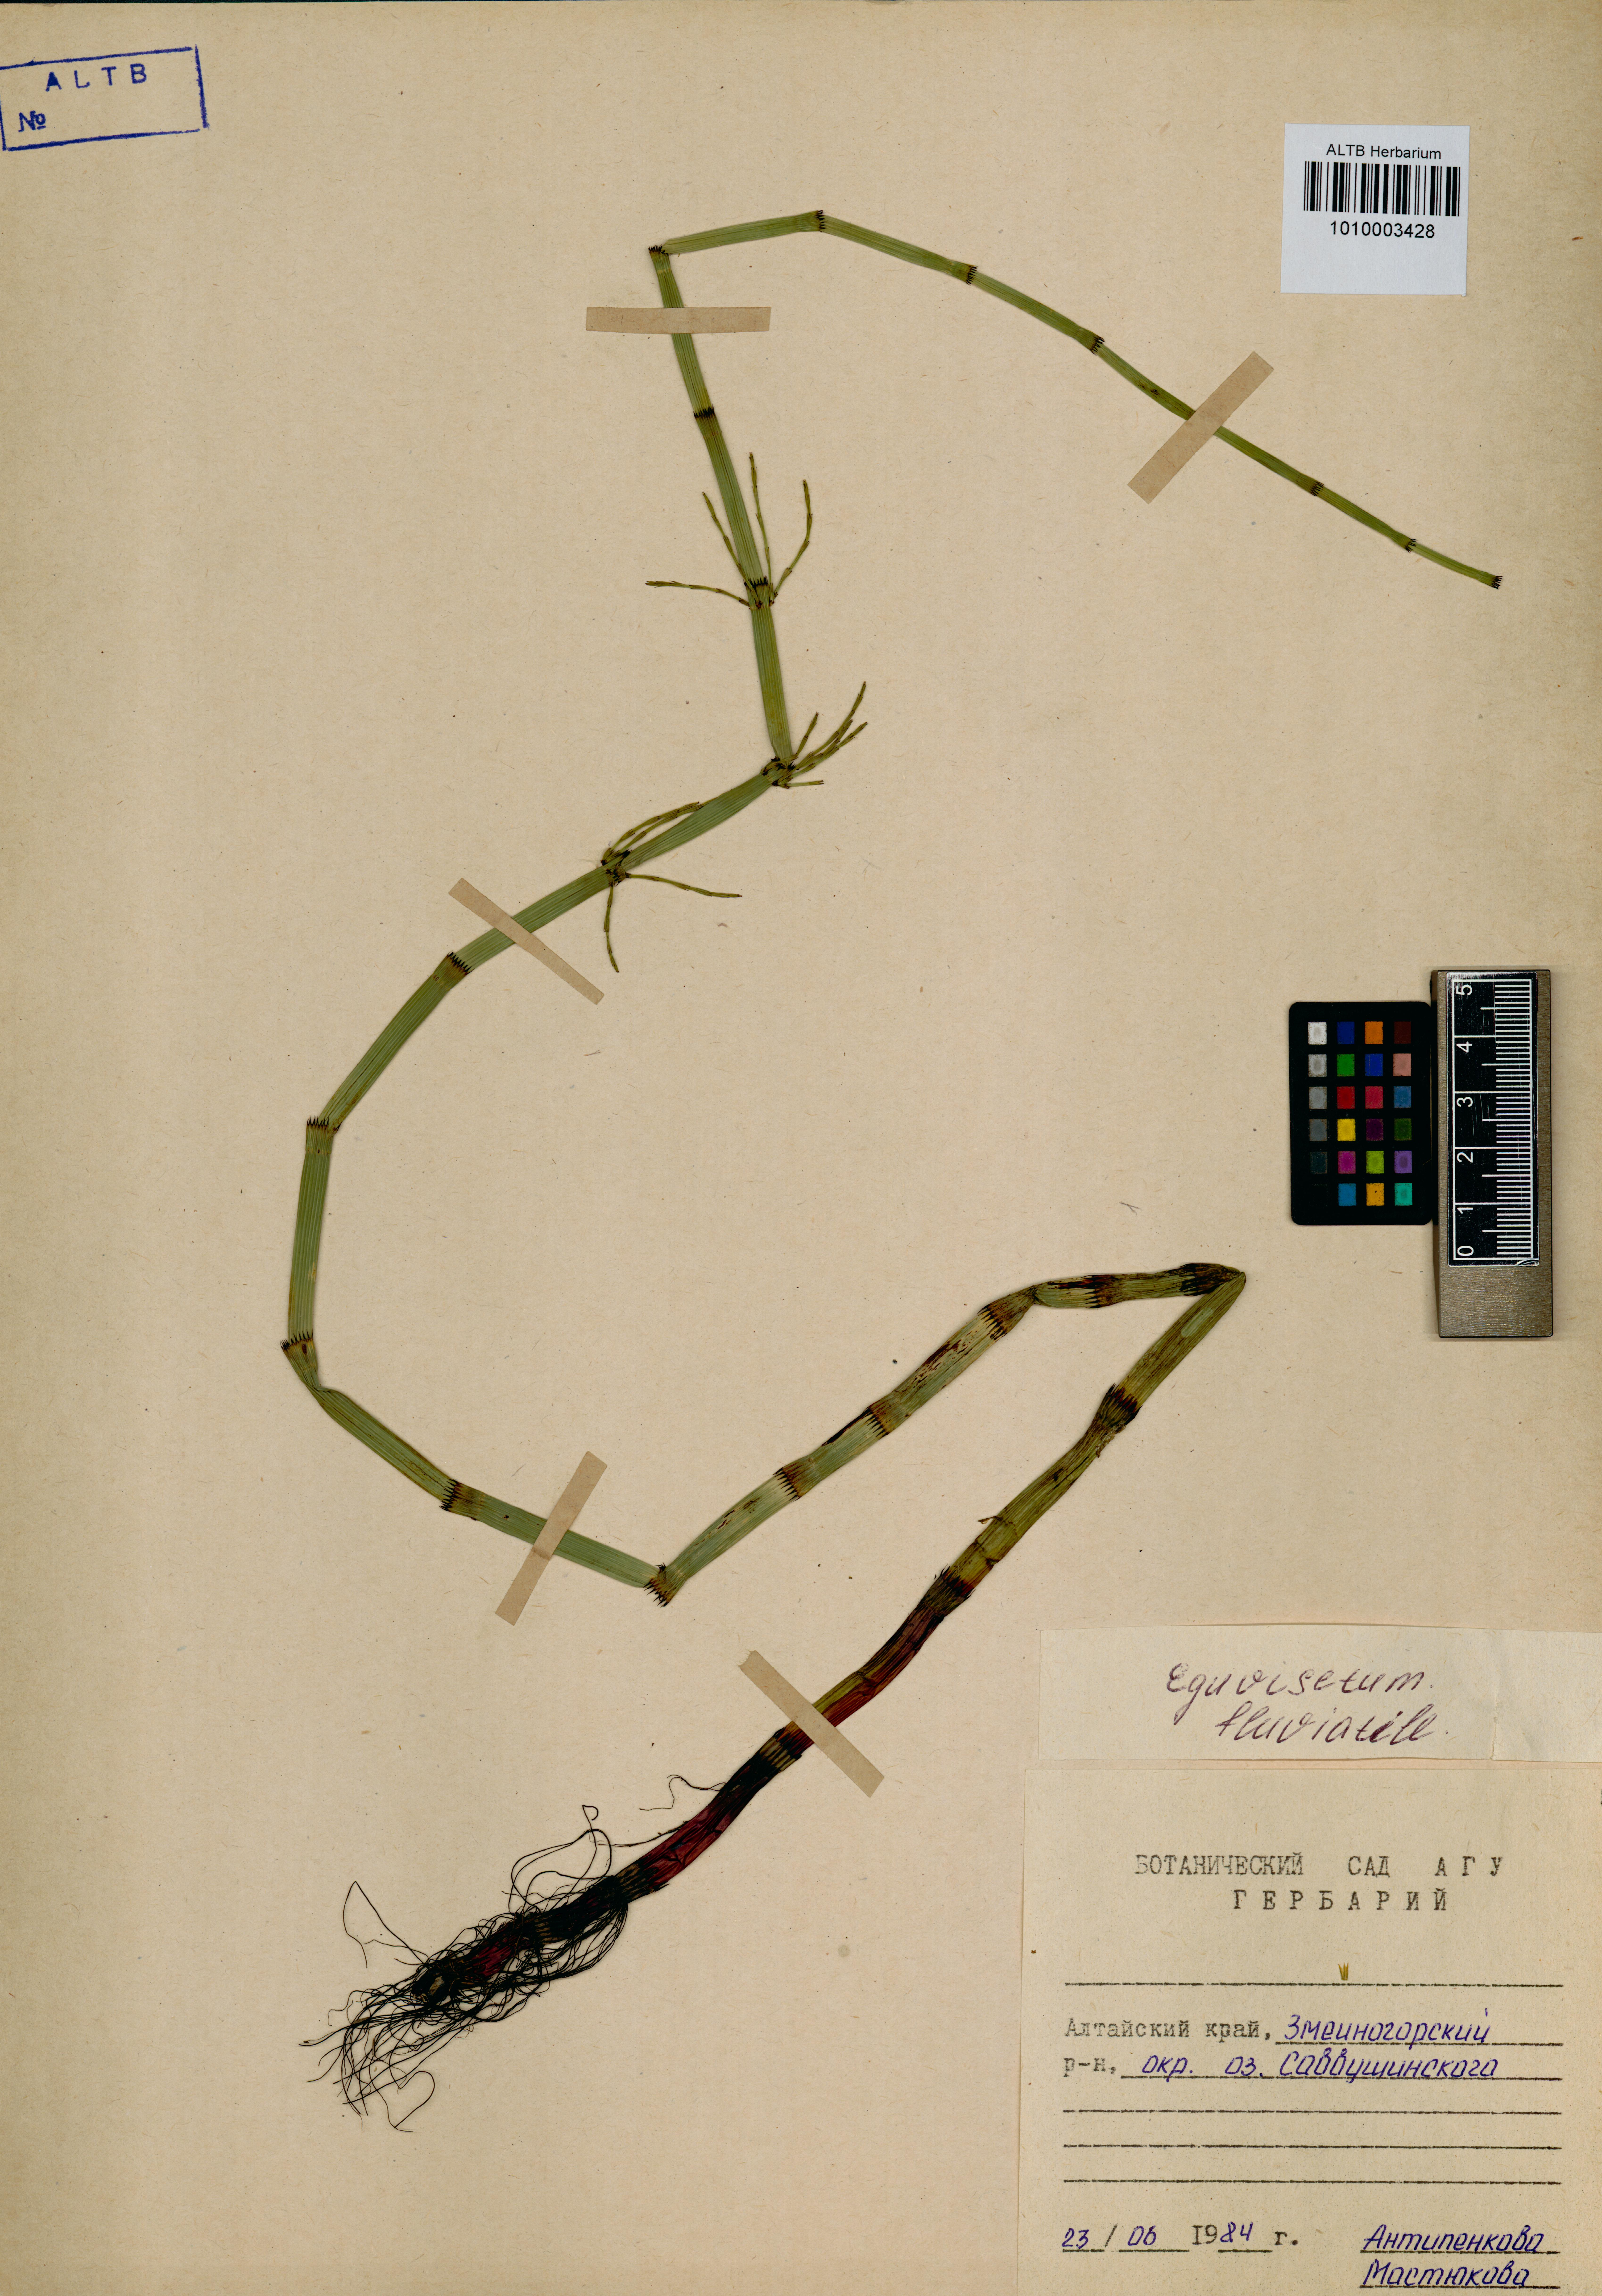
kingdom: Plantae
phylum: Tracheophyta
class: Polypodiopsida
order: Equisetales
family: Equisetaceae
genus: Equisetum
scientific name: Equisetum fluviatile
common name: Water horsetail
